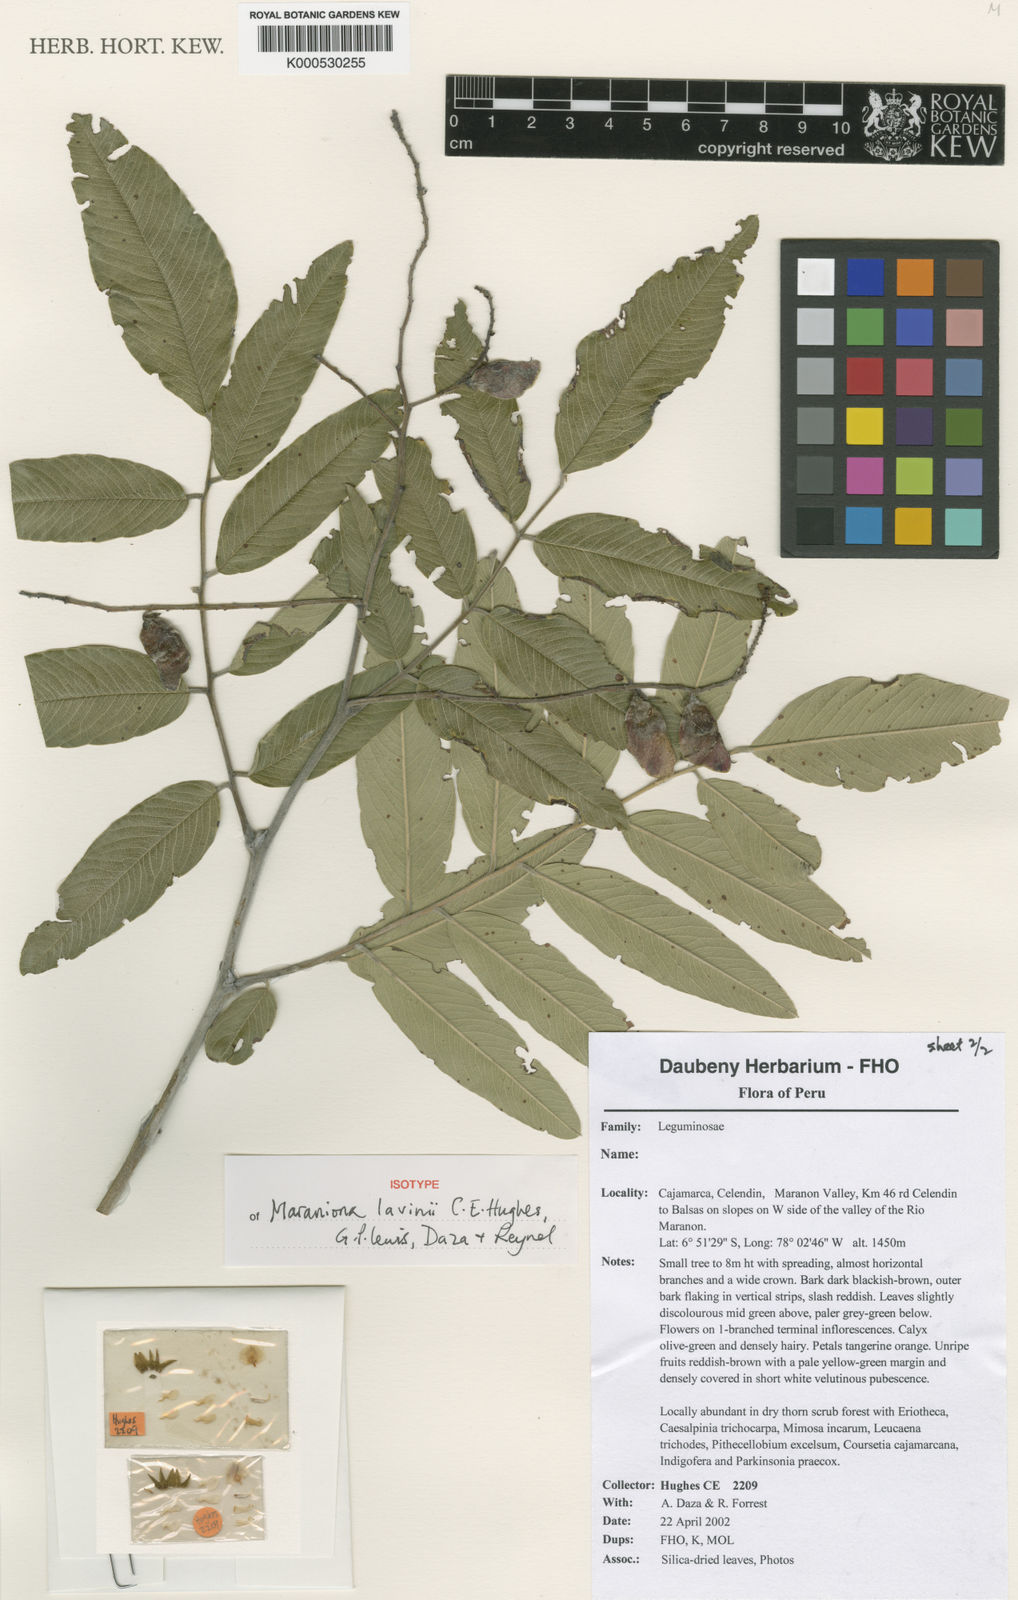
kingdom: Plantae
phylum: Tracheophyta
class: Magnoliopsida
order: Fabales
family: Fabaceae
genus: Maraniona
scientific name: Maraniona lavinii
